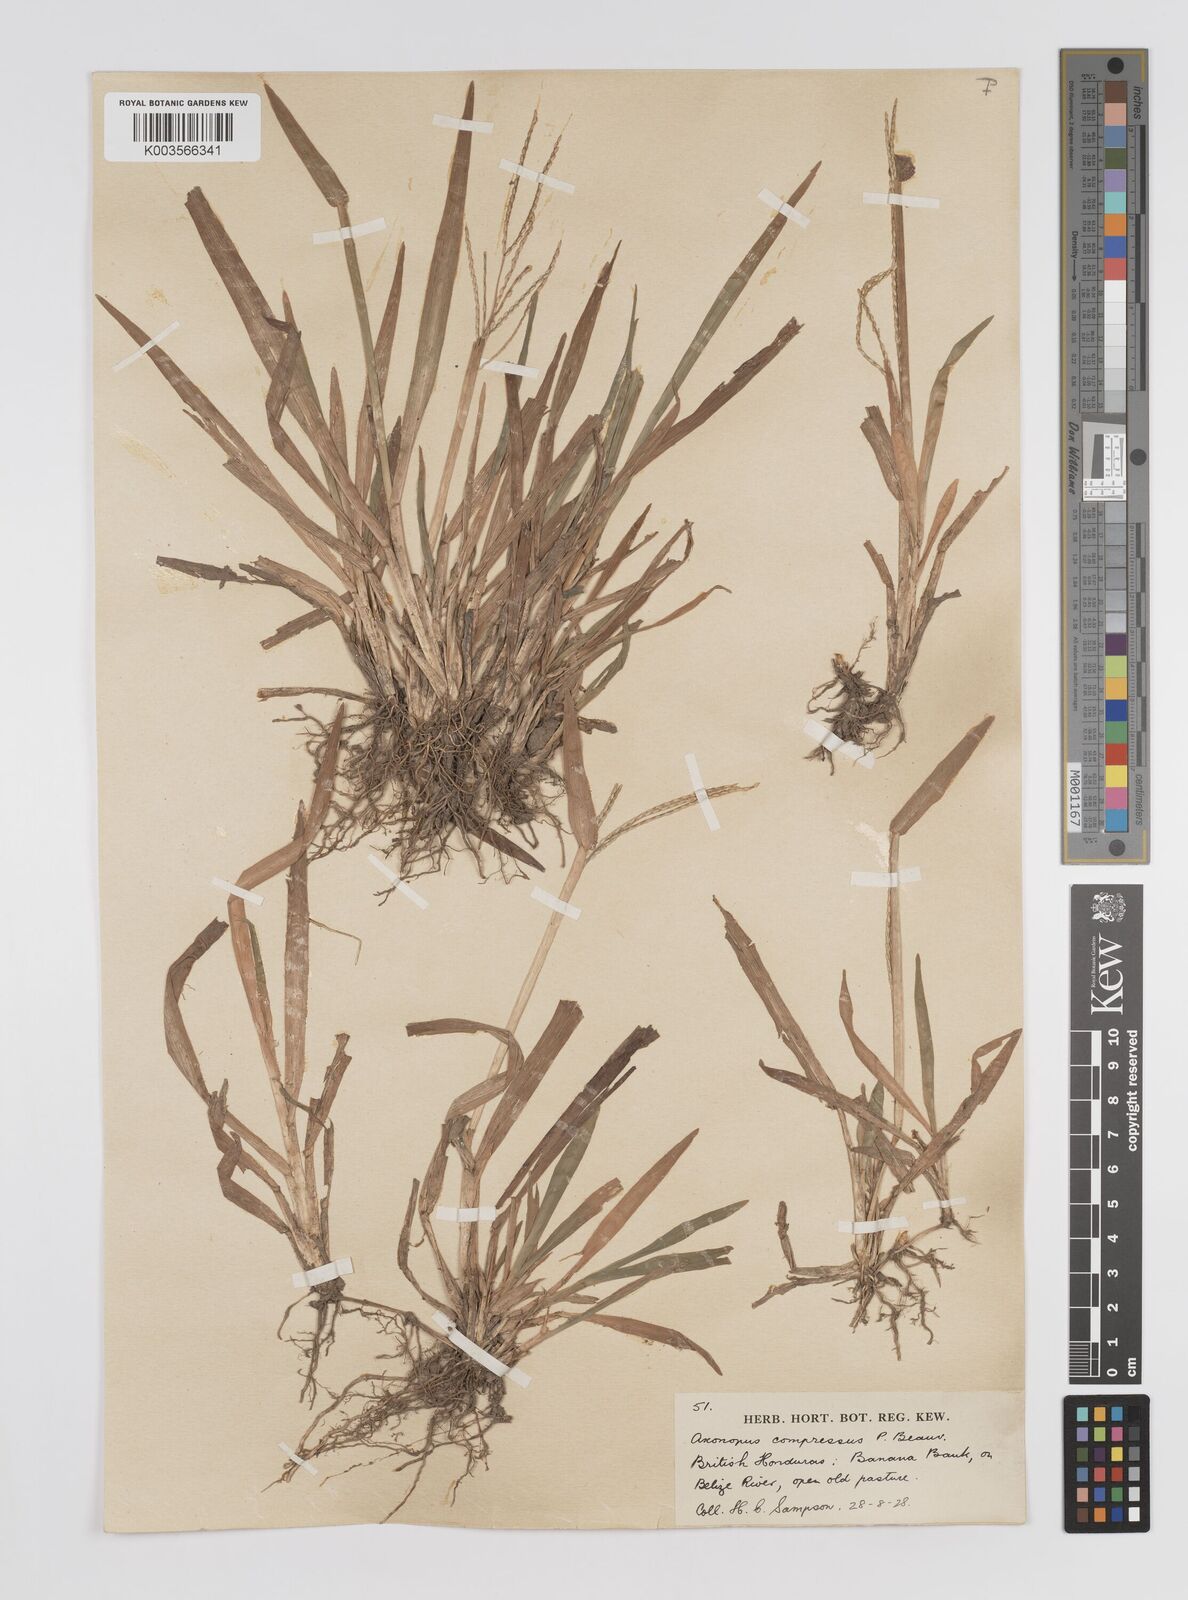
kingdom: Plantae
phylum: Tracheophyta
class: Liliopsida
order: Poales
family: Poaceae
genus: Axonopus
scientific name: Axonopus compressus
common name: American carpet grass
